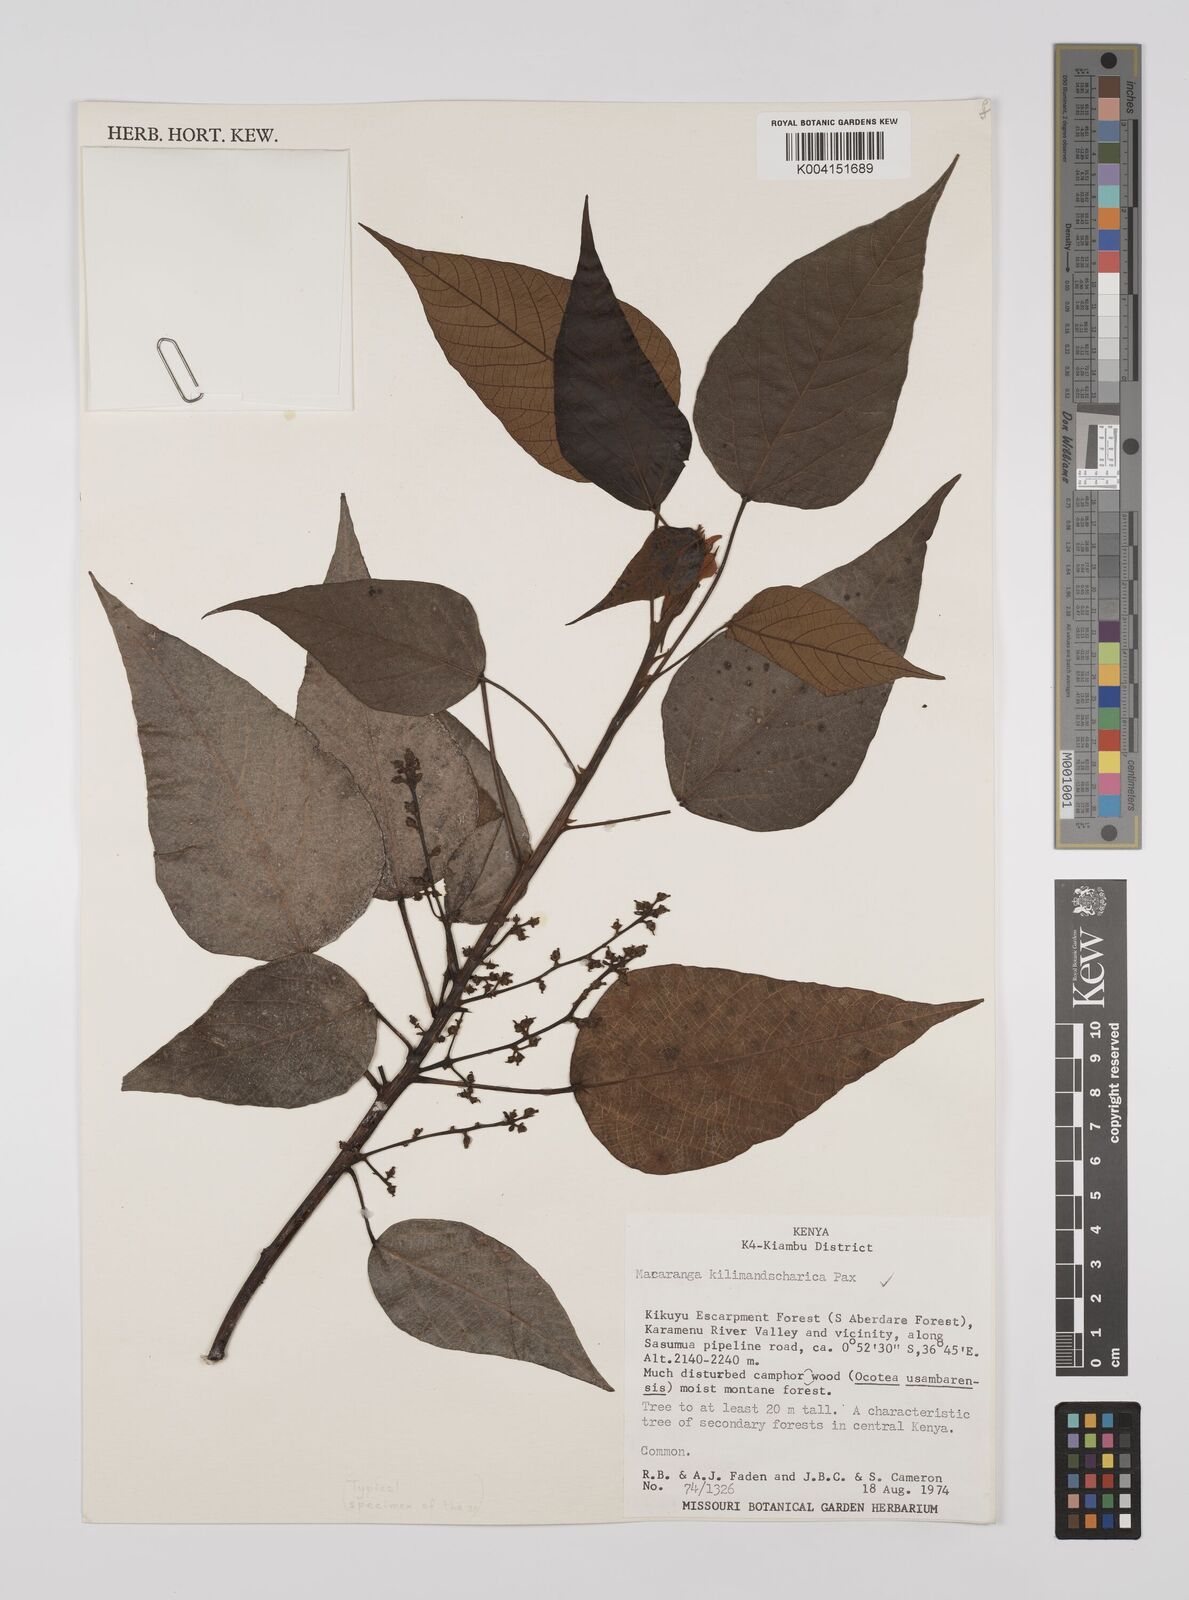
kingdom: Plantae
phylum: Tracheophyta
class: Magnoliopsida
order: Malpighiales
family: Euphorbiaceae
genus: Macaranga
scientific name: Macaranga
